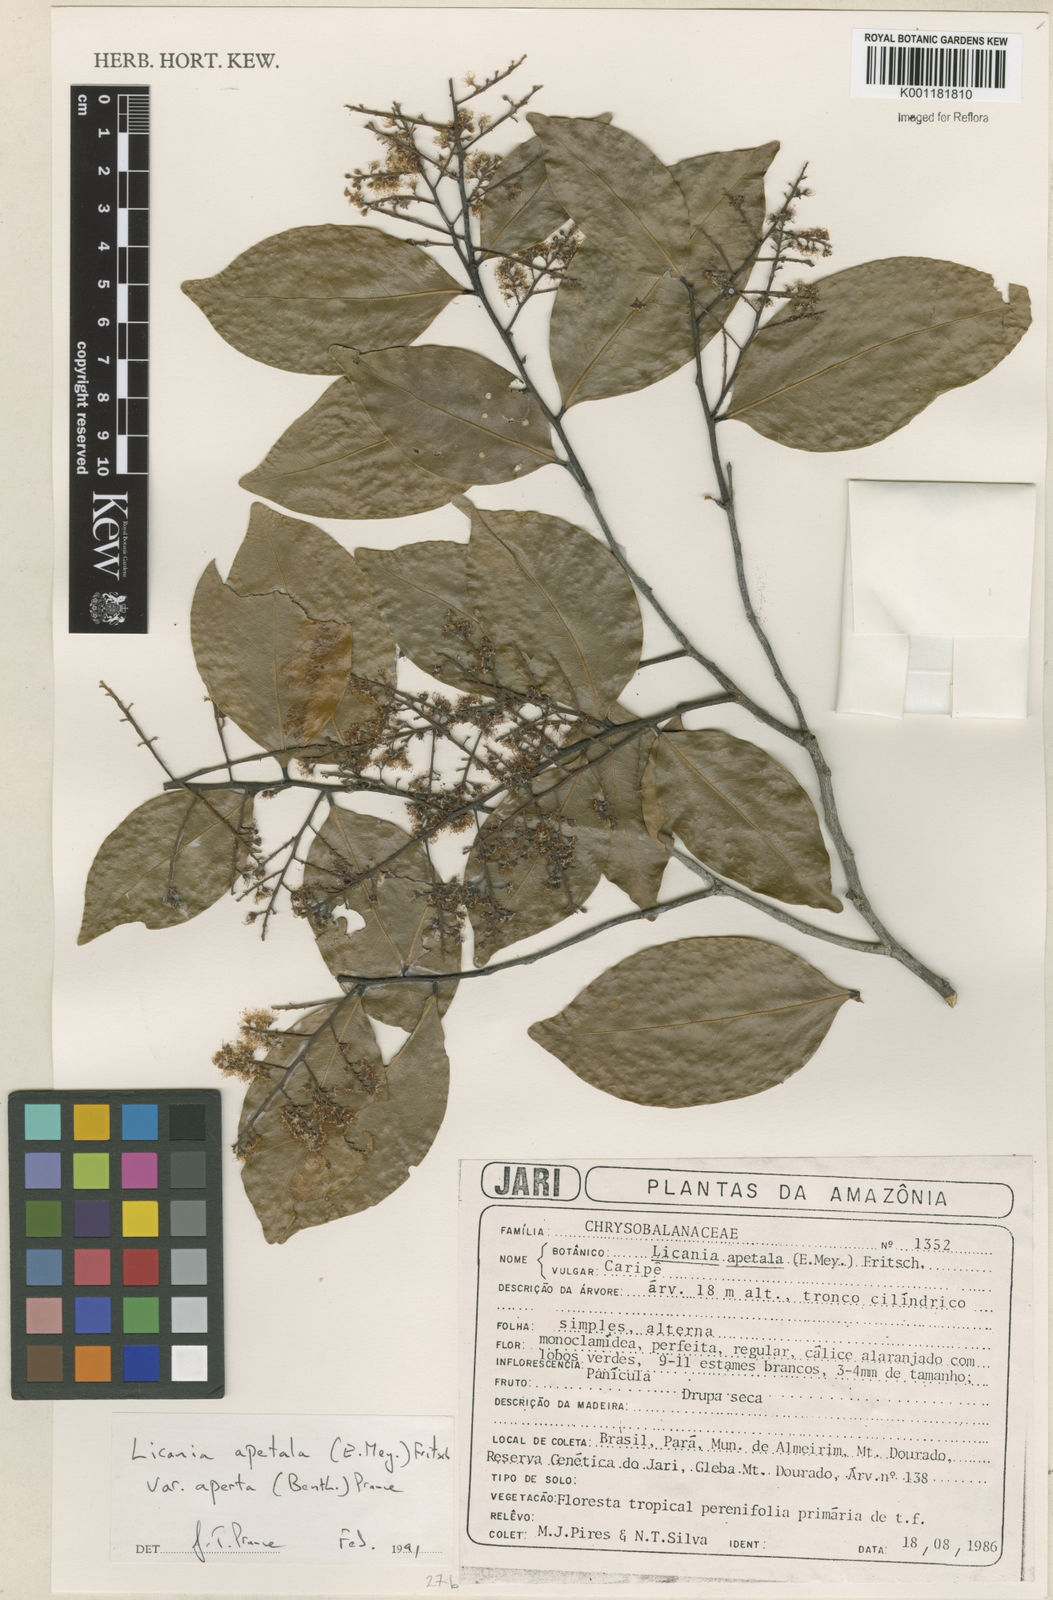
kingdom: Plantae
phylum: Tracheophyta
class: Magnoliopsida
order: Malpighiales
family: Chrysobalanaceae
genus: Leptobalanus
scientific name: Leptobalanus apetalus
